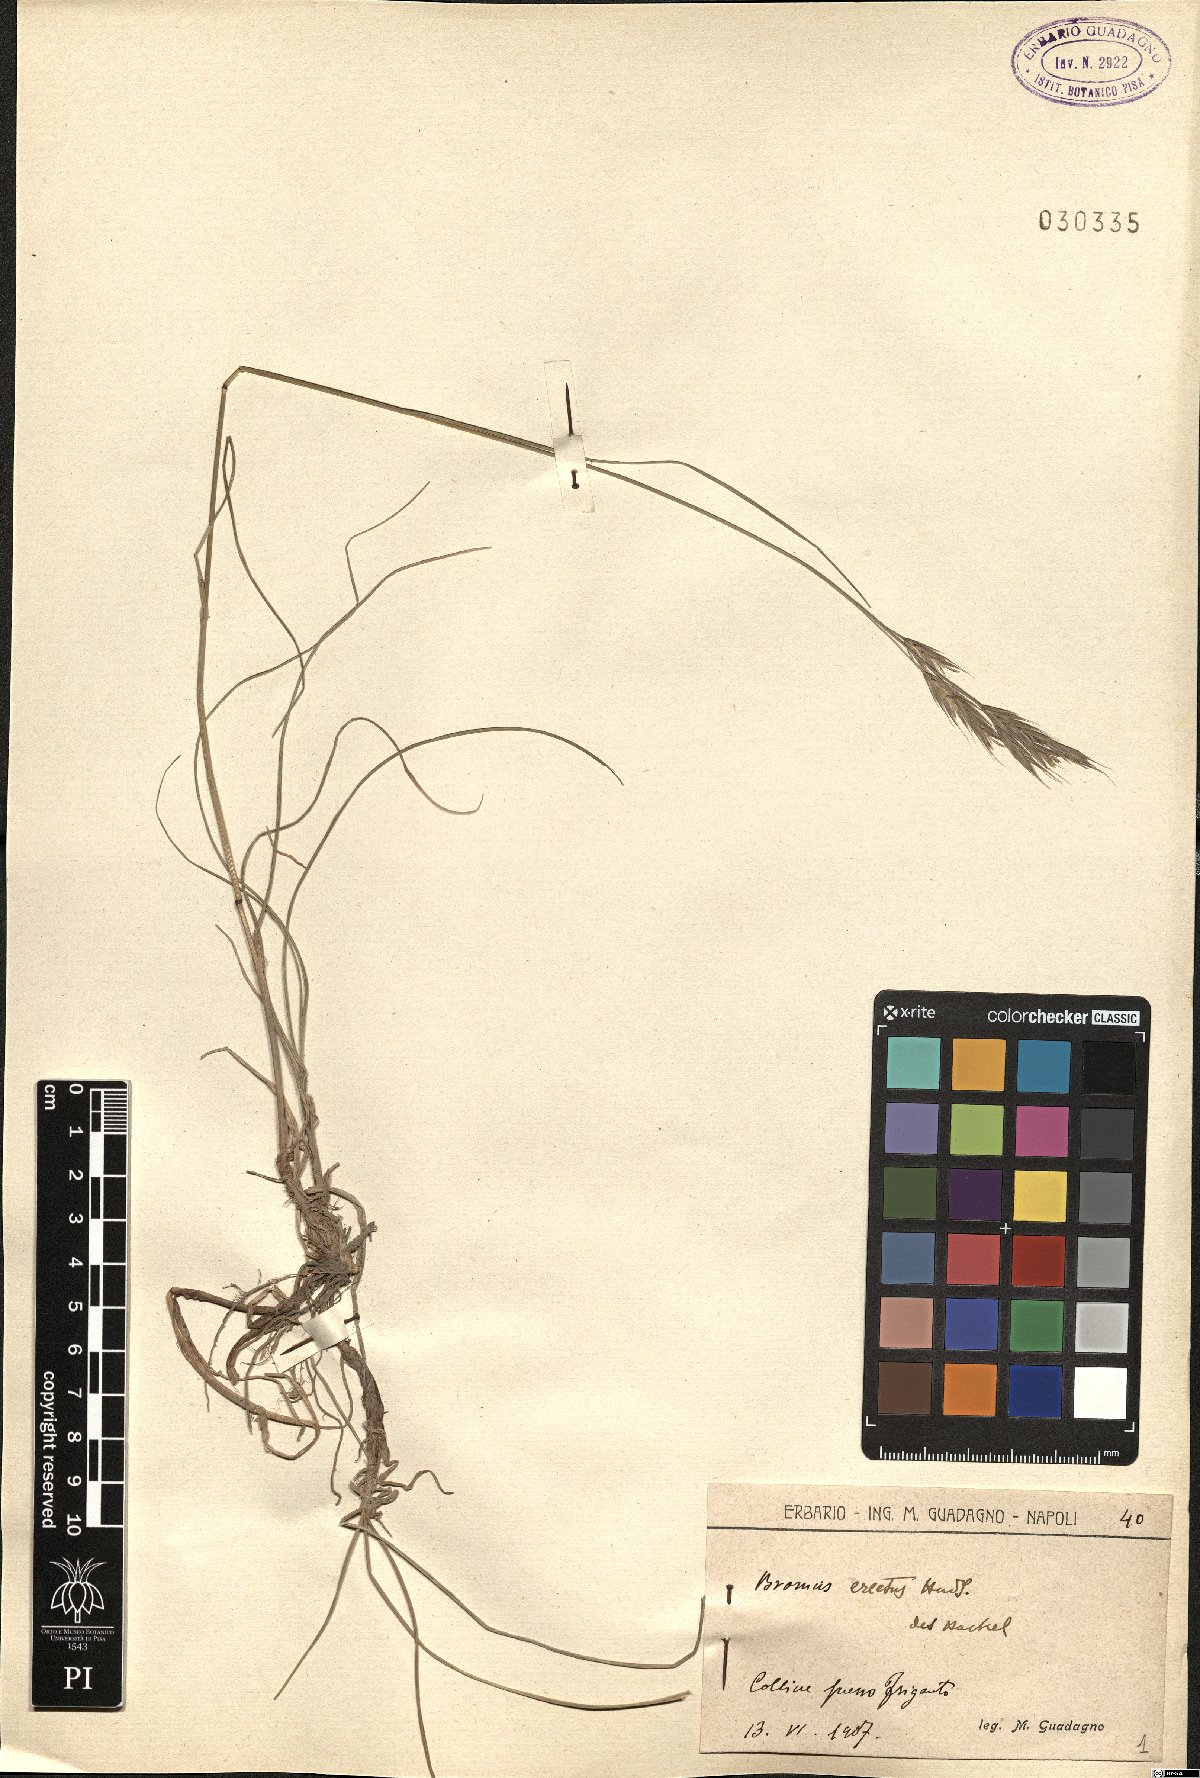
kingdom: Plantae
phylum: Tracheophyta
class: Liliopsida
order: Poales
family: Poaceae
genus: Bromus
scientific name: Bromus erectus
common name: Erect brome
